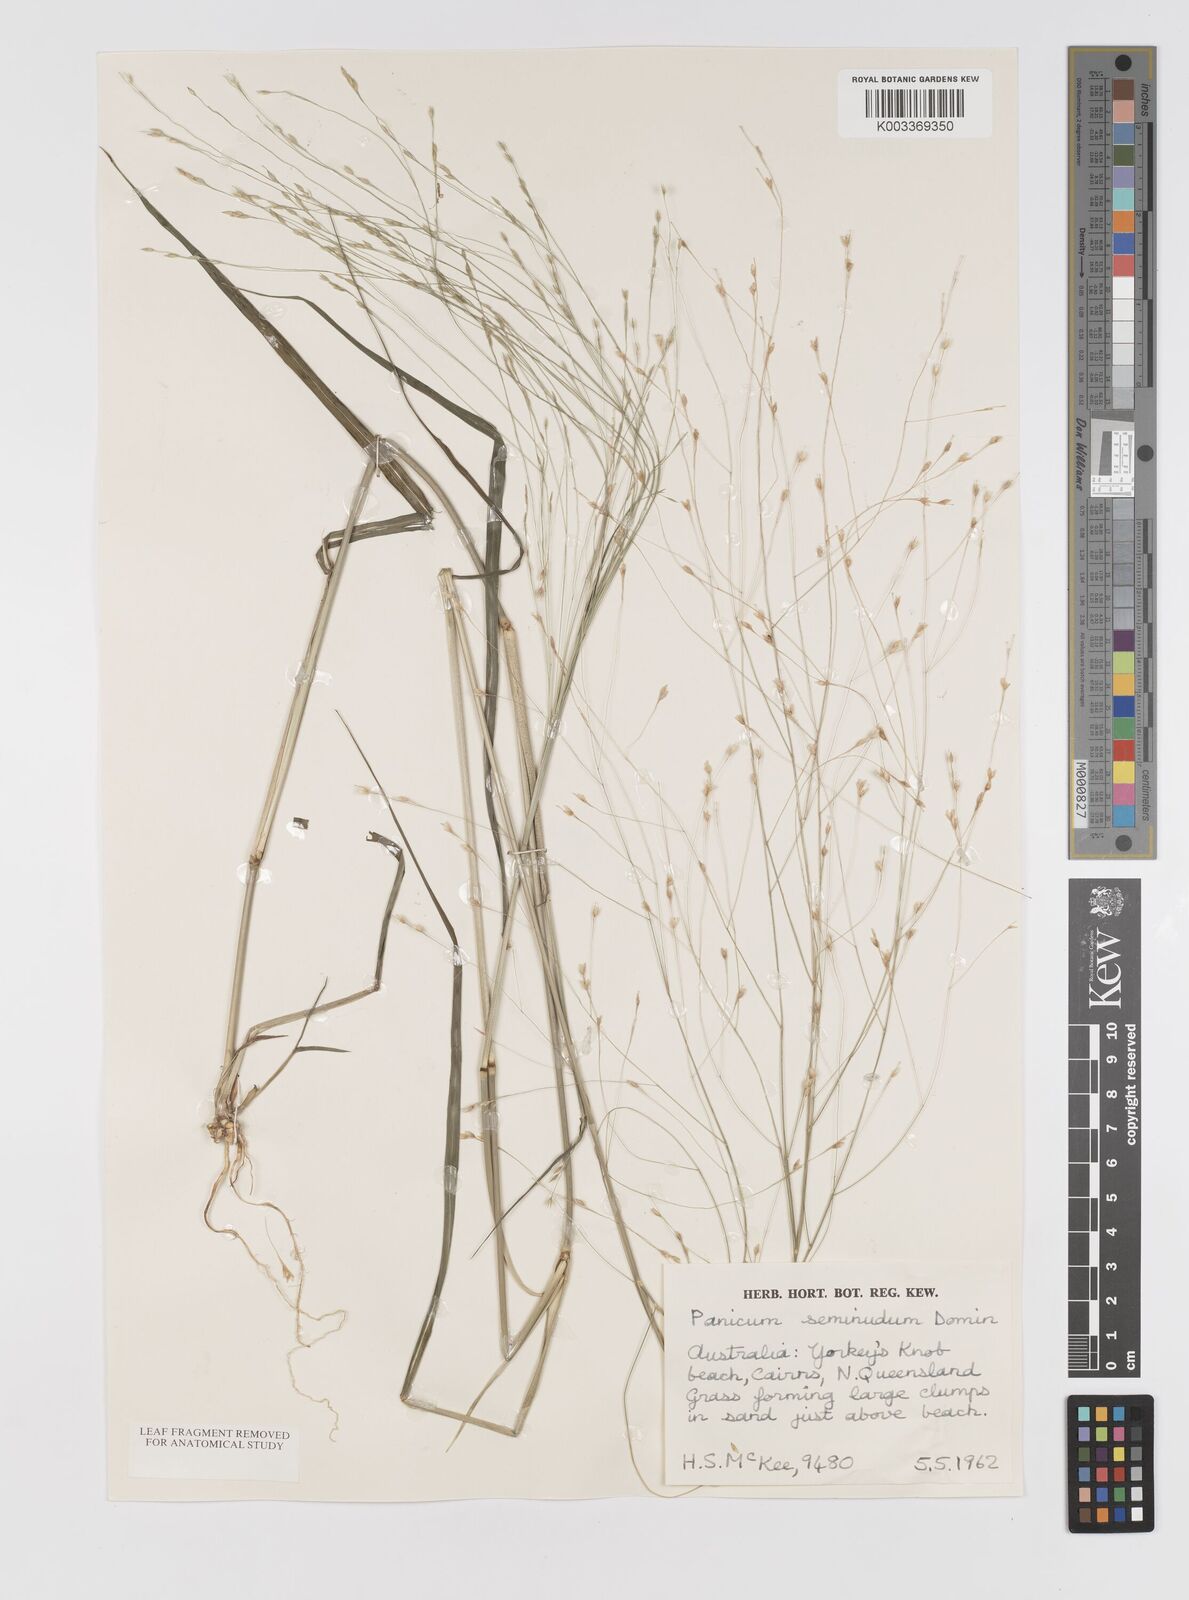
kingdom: Plantae
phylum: Tracheophyta
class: Liliopsida
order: Poales
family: Poaceae
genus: Panicum
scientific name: Panicum seminudum
